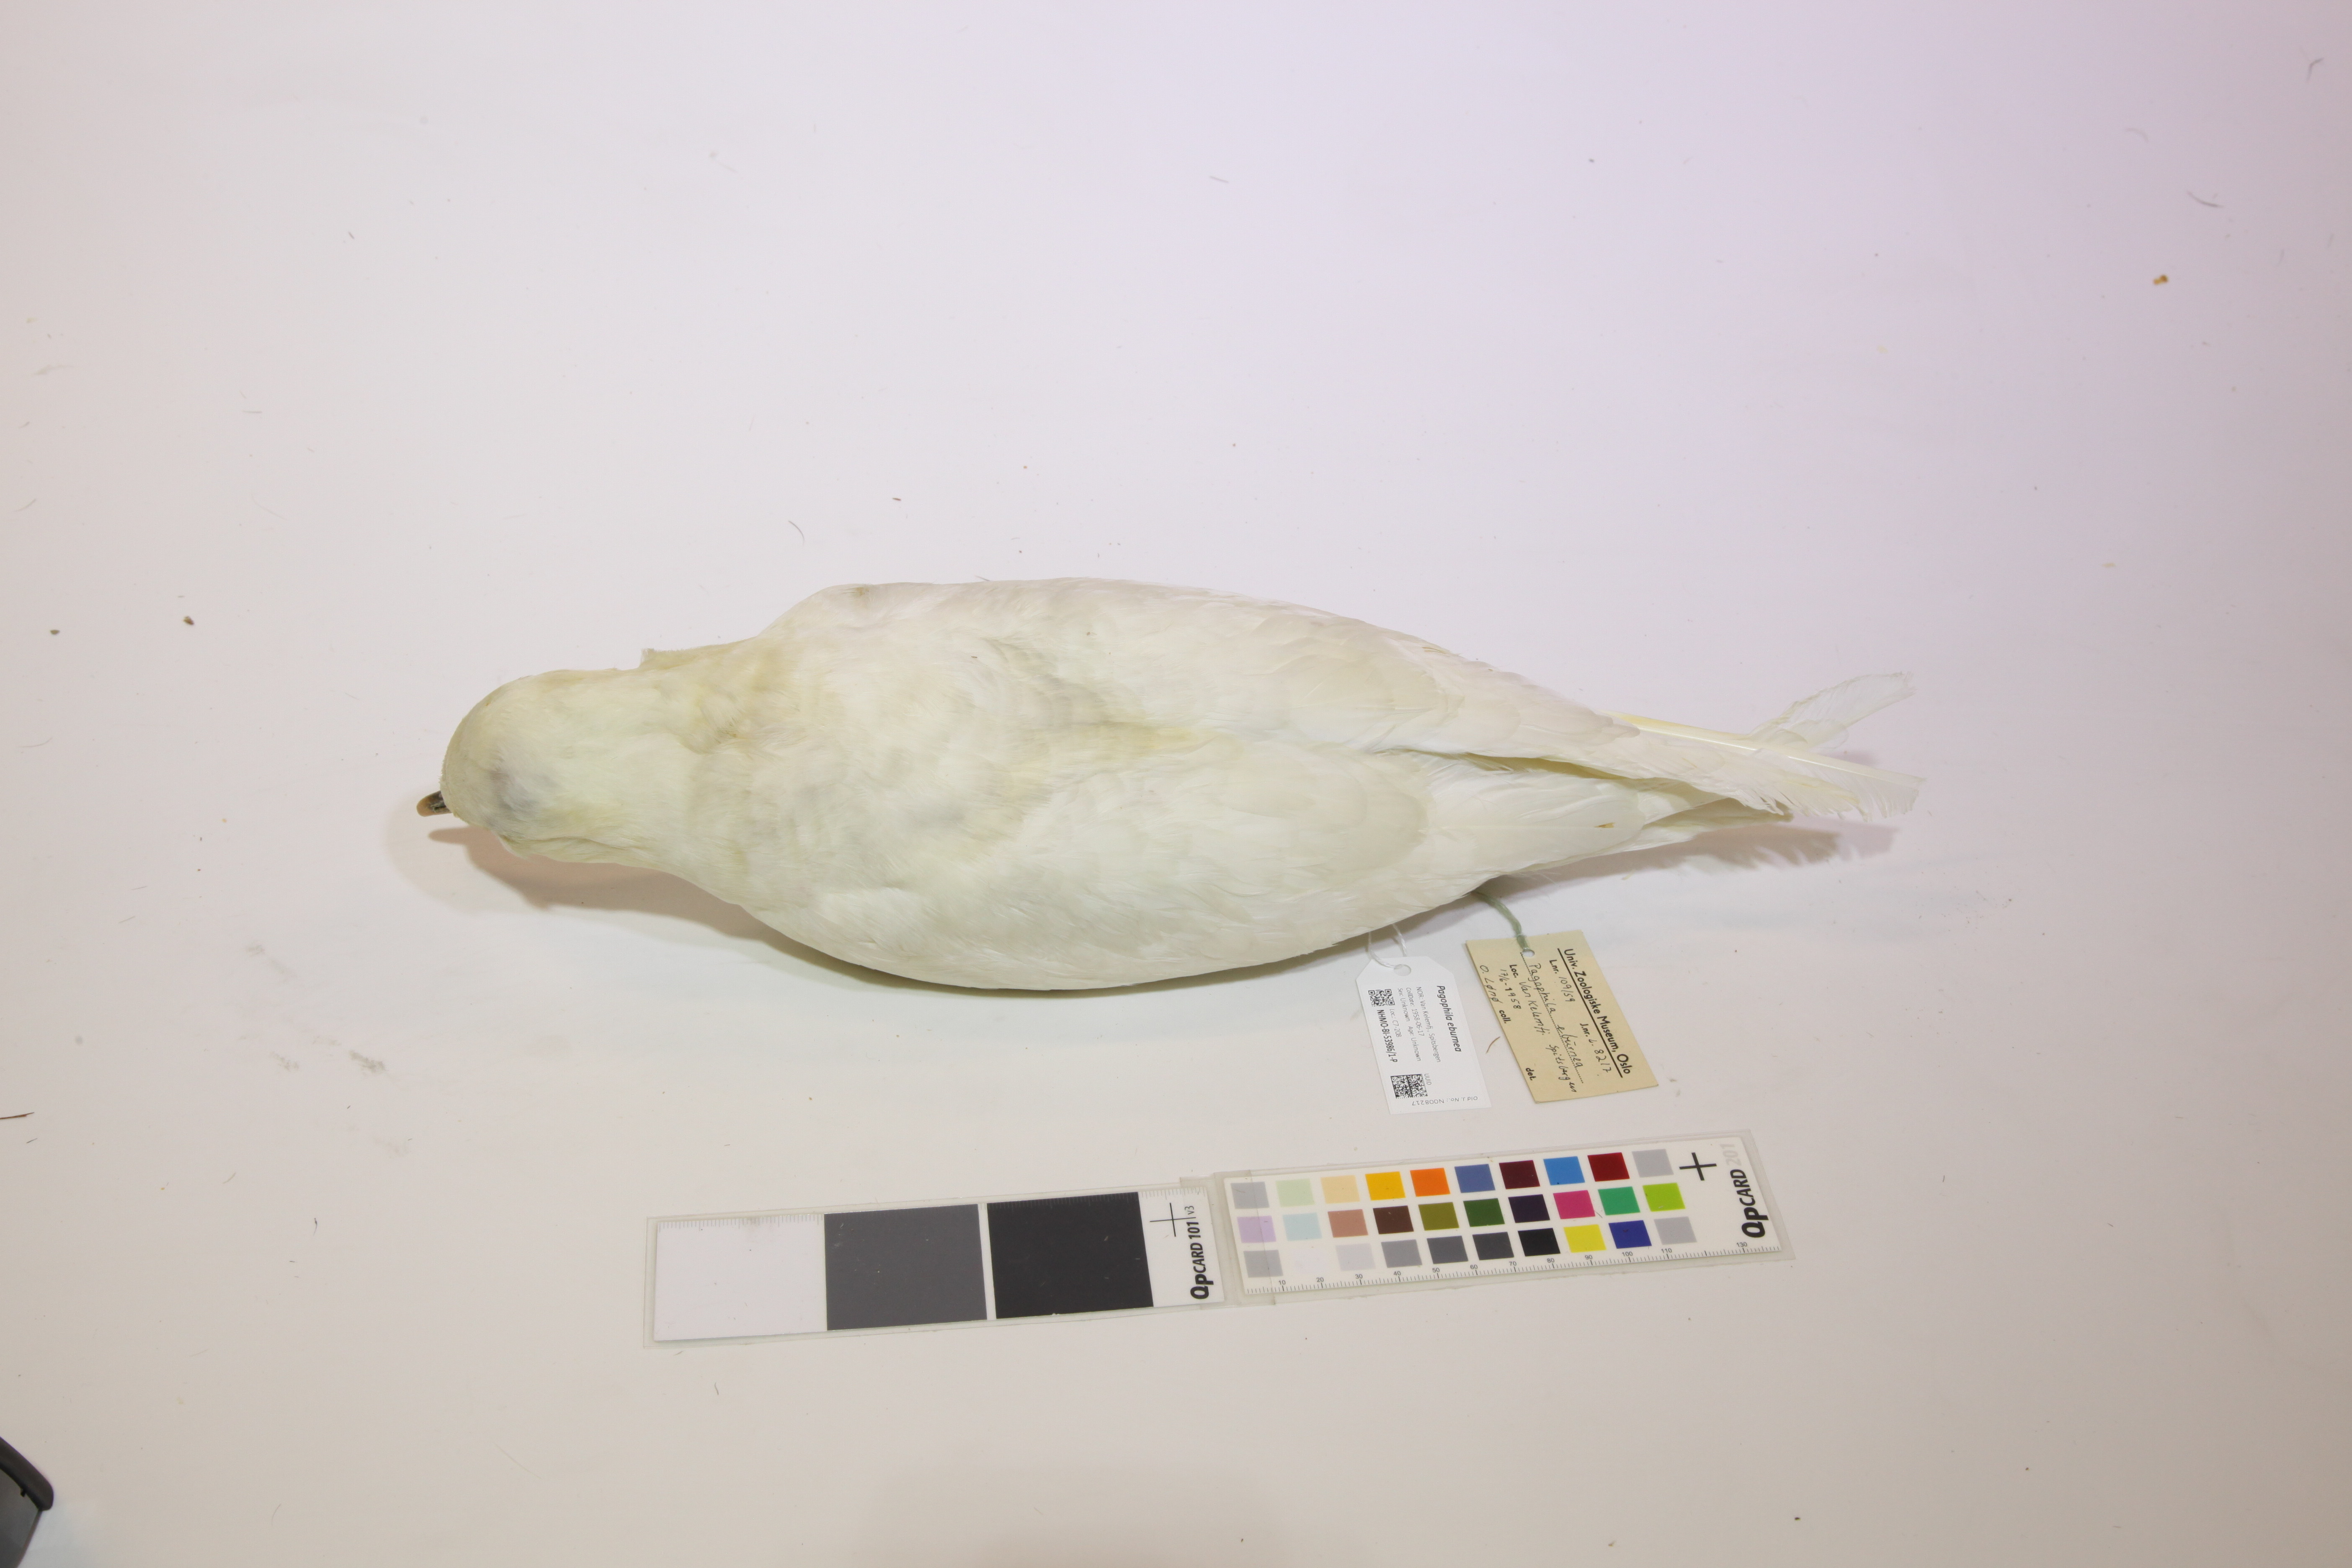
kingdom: Animalia
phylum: Chordata
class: Aves
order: Charadriiformes
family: Laridae
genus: Pagophila
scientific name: Pagophila eburnea
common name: Ivory gull
